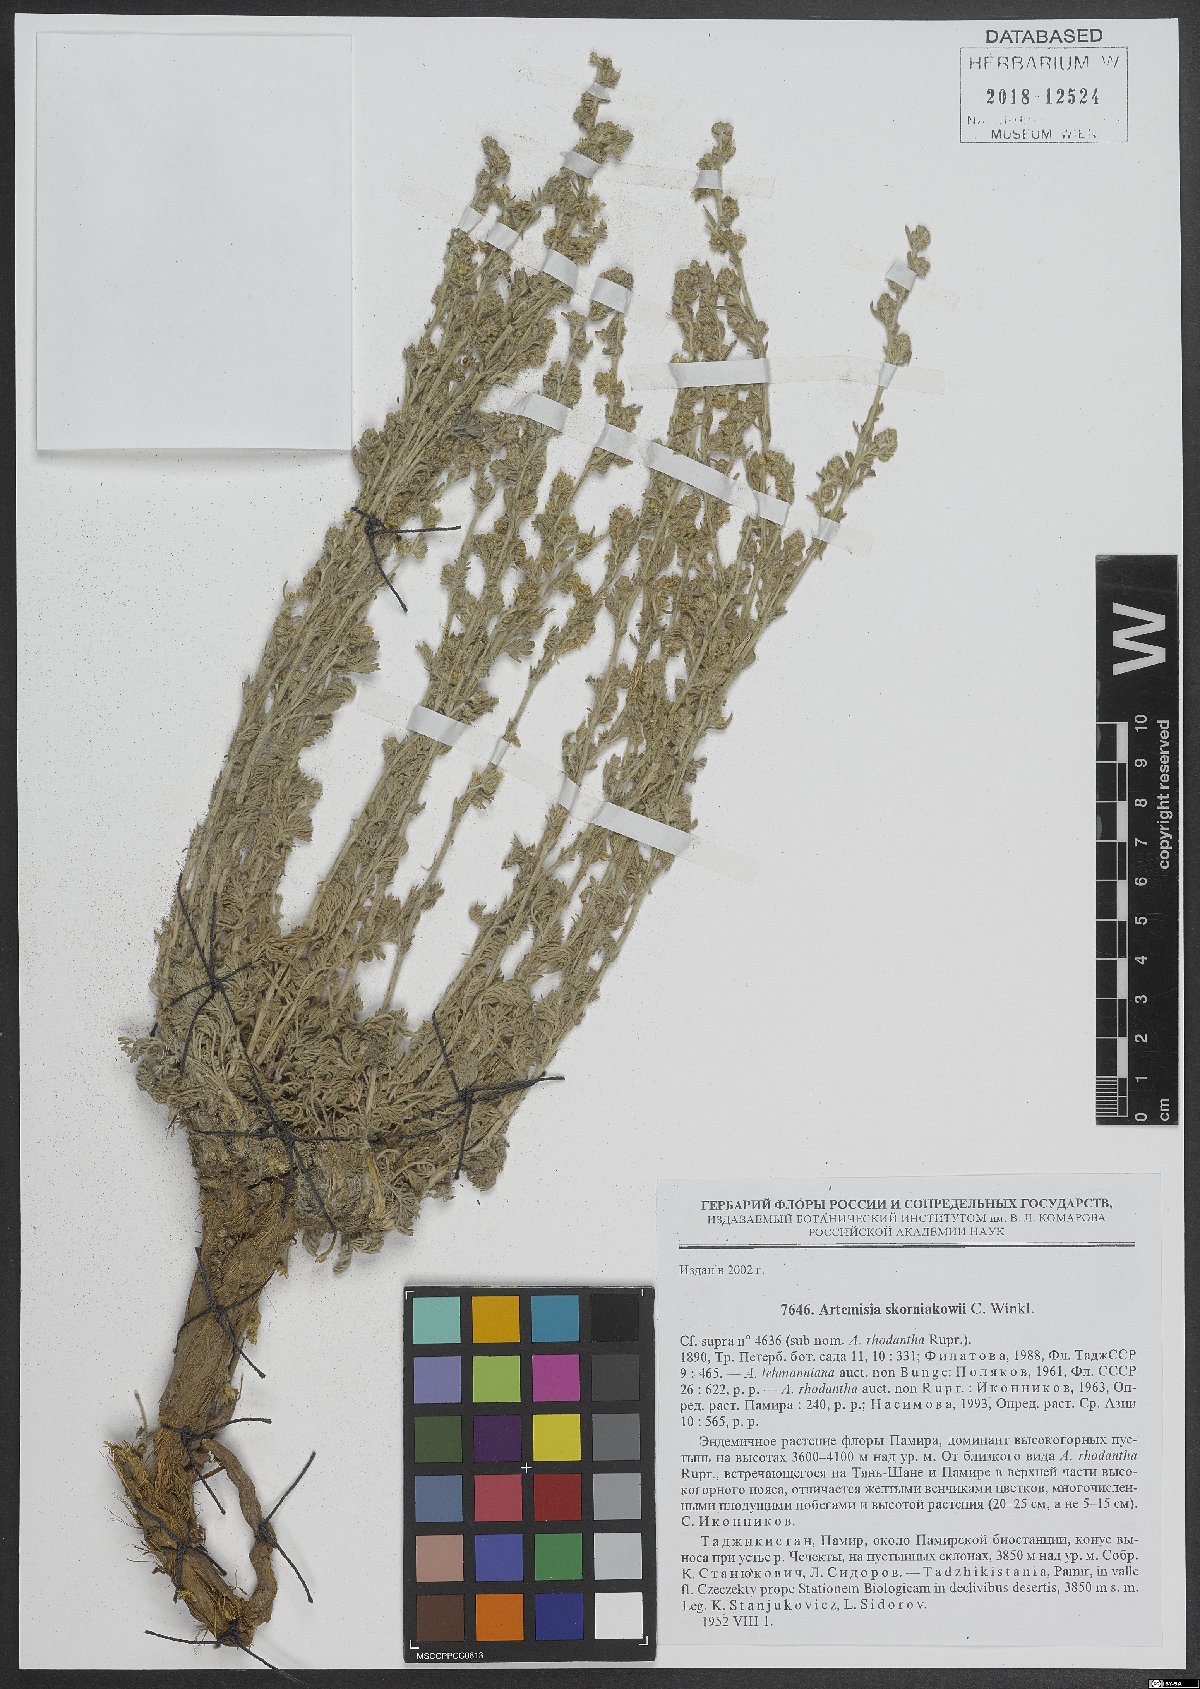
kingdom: Plantae
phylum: Tracheophyta
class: Magnoliopsida
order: Asterales
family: Asteraceae
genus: Artemisia
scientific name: Artemisia skorniakovii
